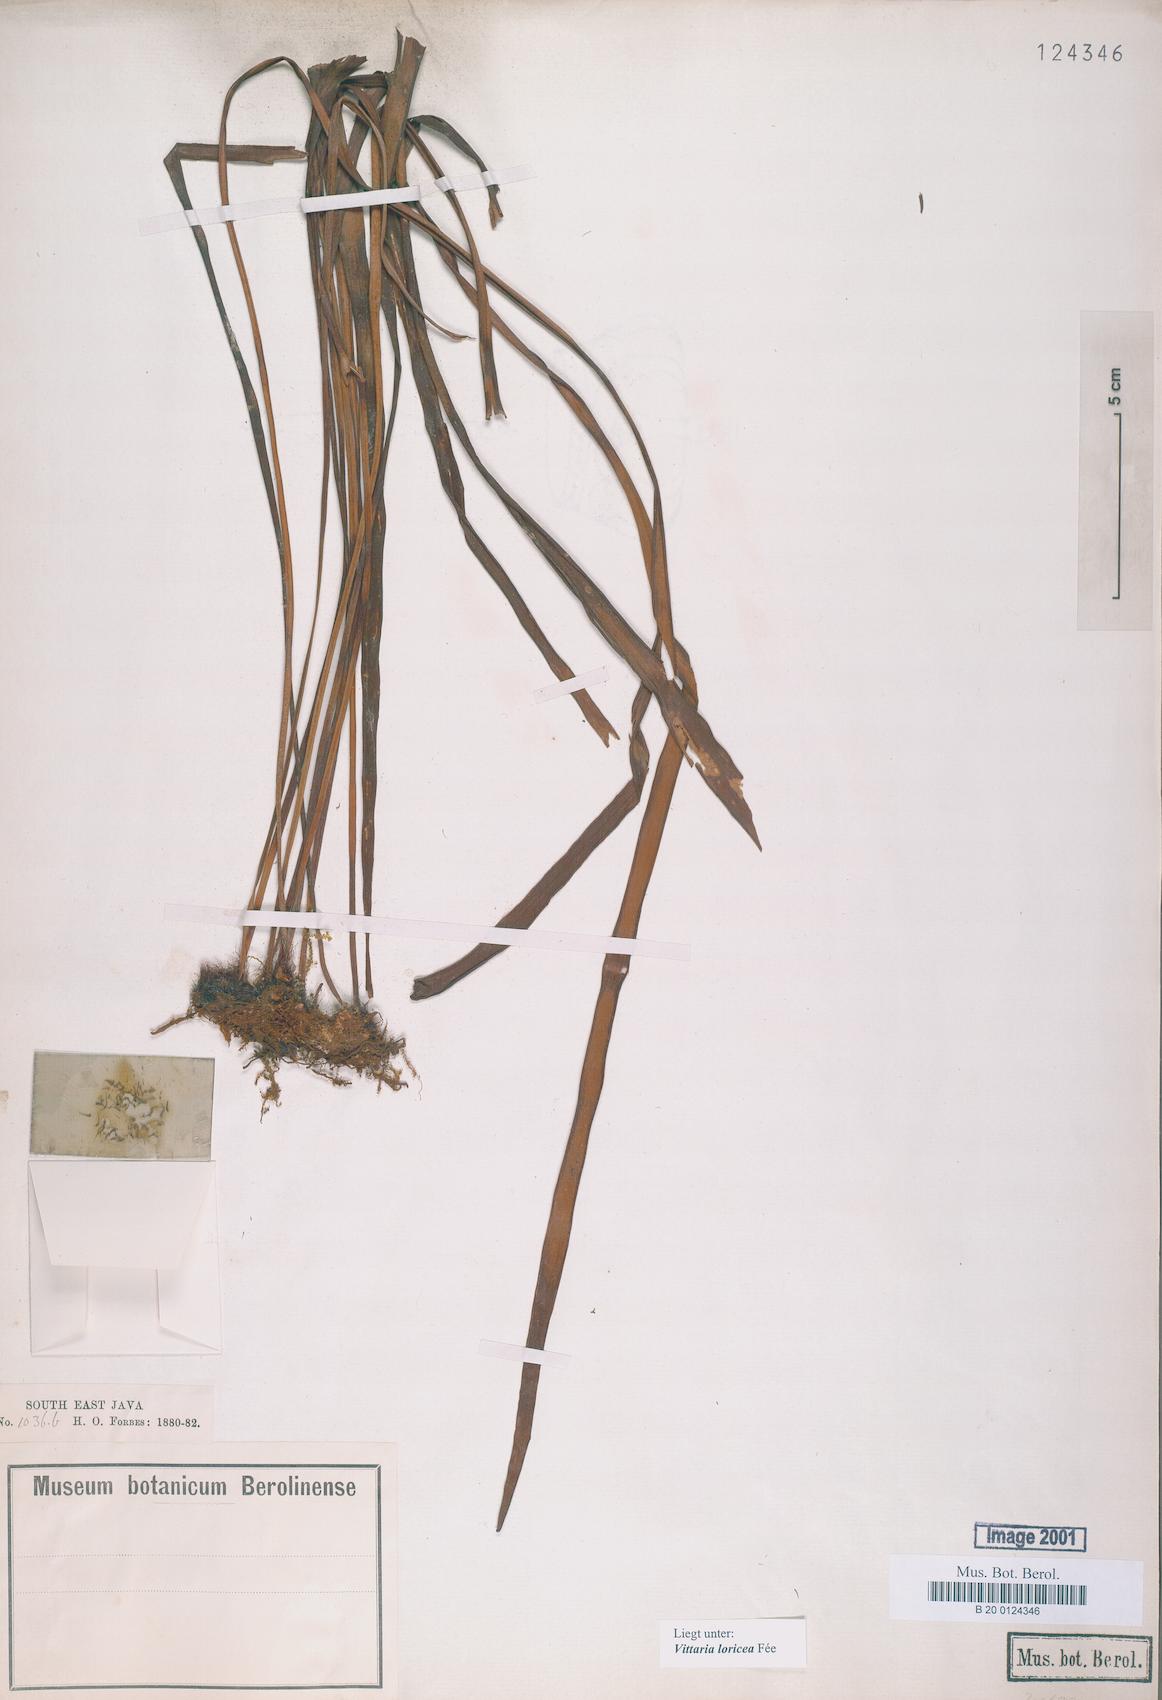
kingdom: Plantae
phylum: Tracheophyta
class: Polypodiopsida
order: Polypodiales
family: Pteridaceae
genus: Haplopteris
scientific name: Haplopteris zosterifolia
